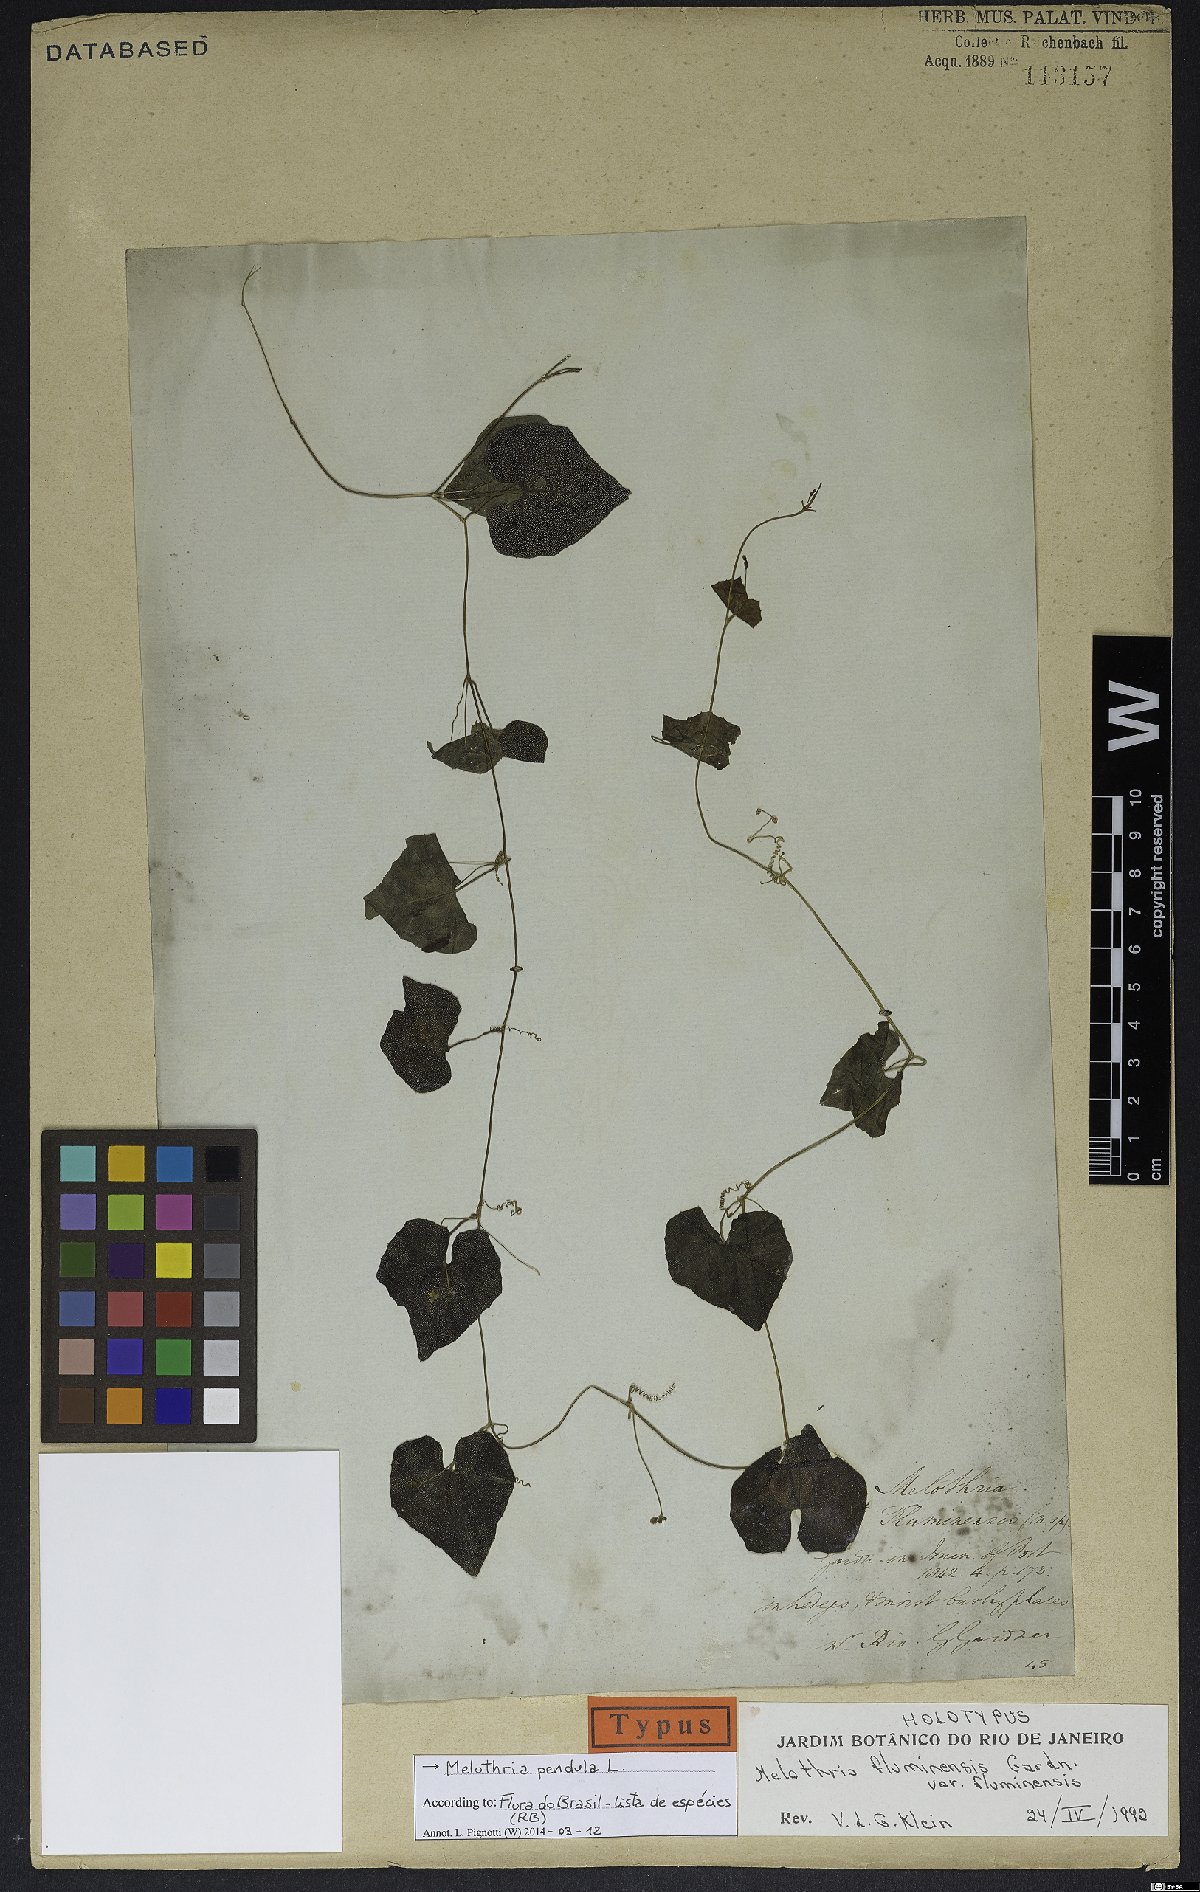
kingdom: Plantae
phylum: Tracheophyta
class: Magnoliopsida
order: Cucurbitales
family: Cucurbitaceae
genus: Melothria
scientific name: Melothria pendula
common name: Creeping-cucumber
